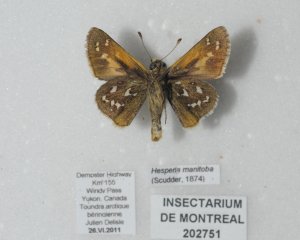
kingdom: Animalia
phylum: Arthropoda
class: Insecta
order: Lepidoptera
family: Hesperiidae
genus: Hesperia
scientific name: Hesperia comma
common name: Common Branded Skipper
